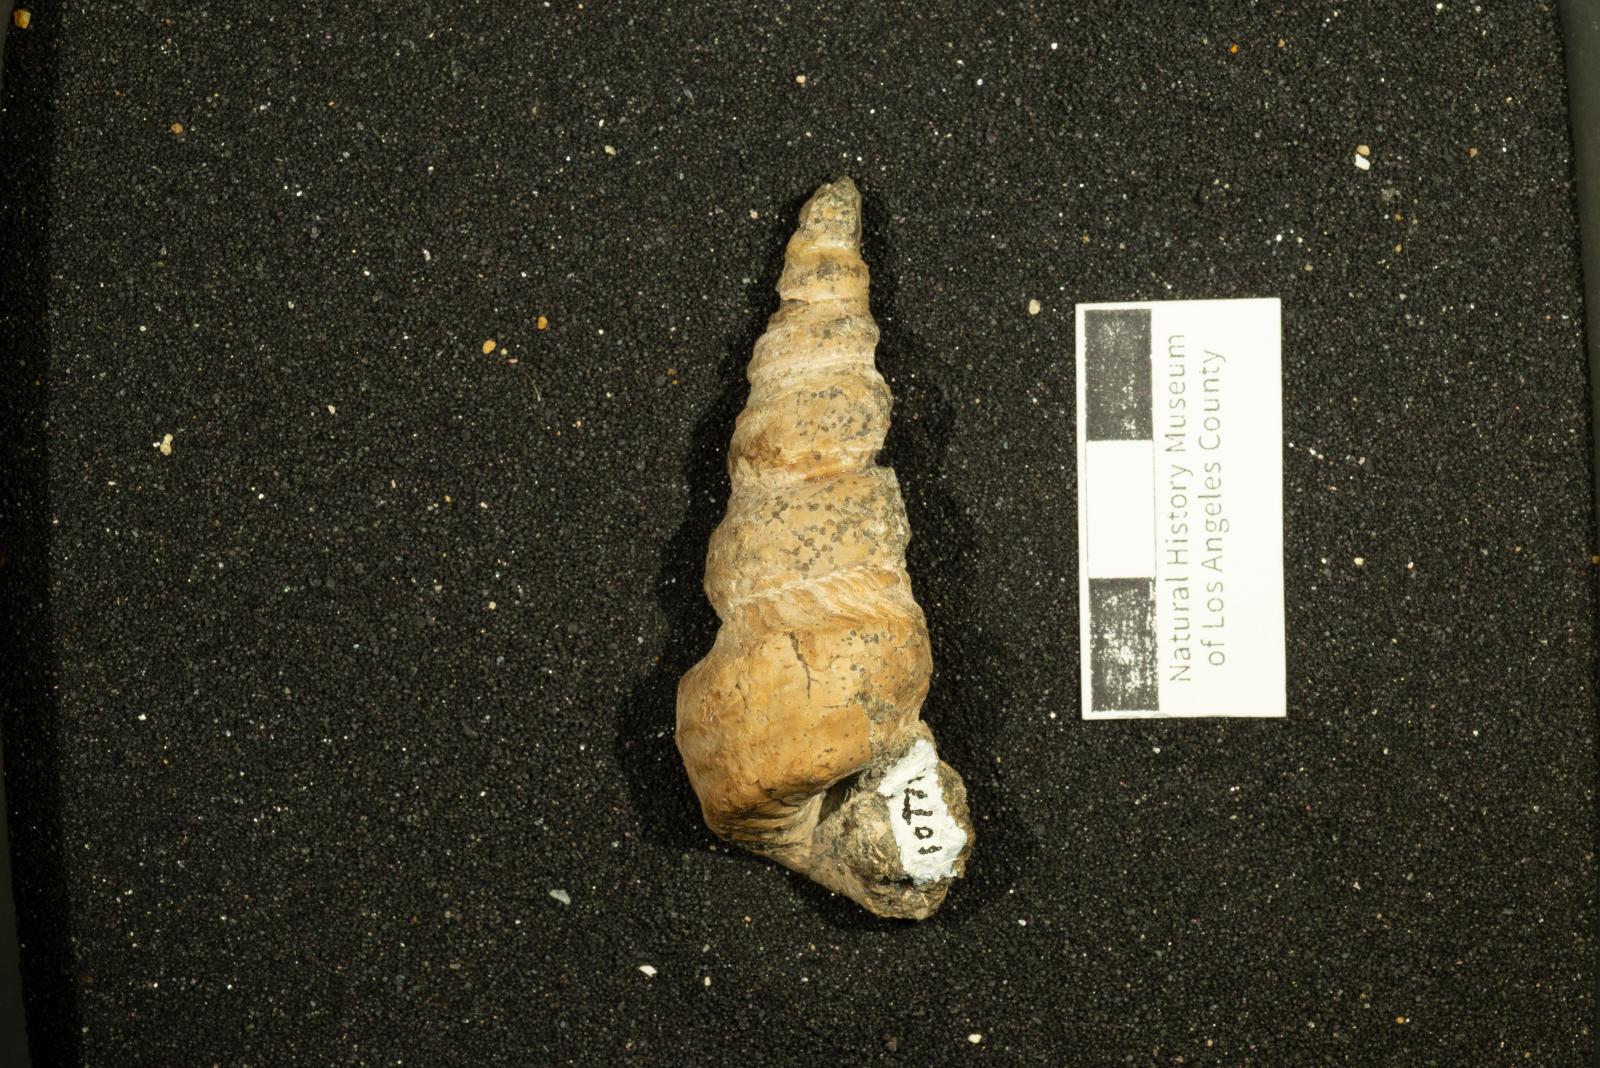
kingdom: Animalia
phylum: Mollusca
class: Gastropoda
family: Turritellidae
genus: Turritella
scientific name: Turritella robusta
